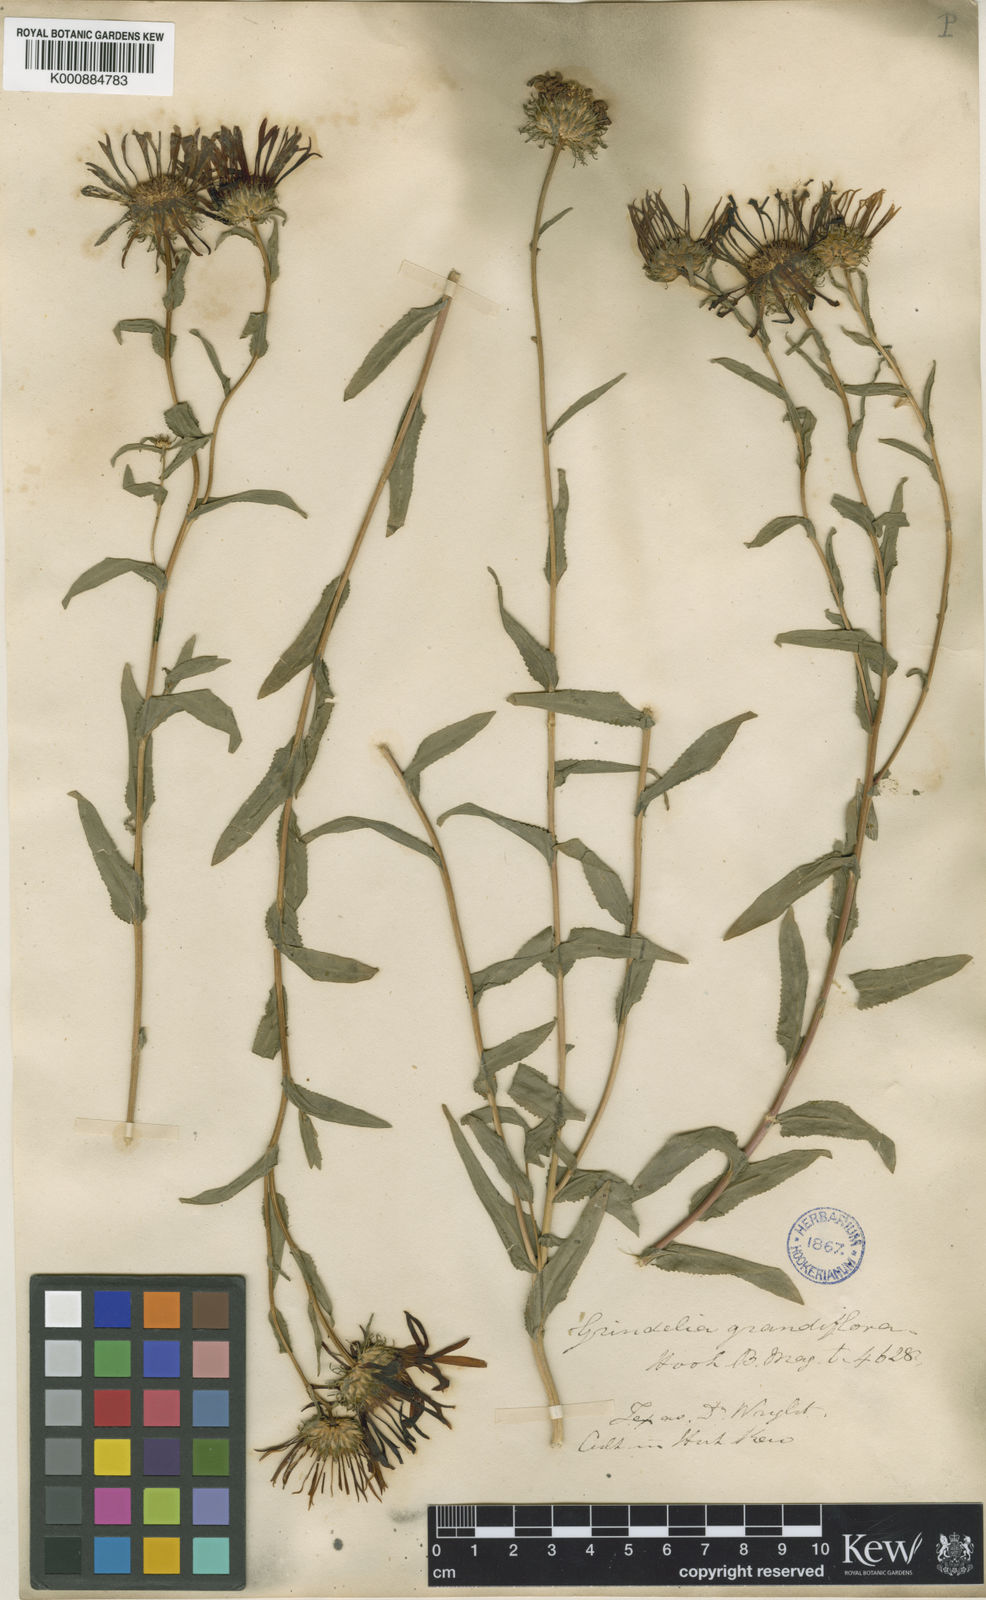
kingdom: Plantae
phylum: Tracheophyta
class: Magnoliopsida
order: Asterales
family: Asteraceae
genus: Grindelia
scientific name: Grindelia grandiflora
